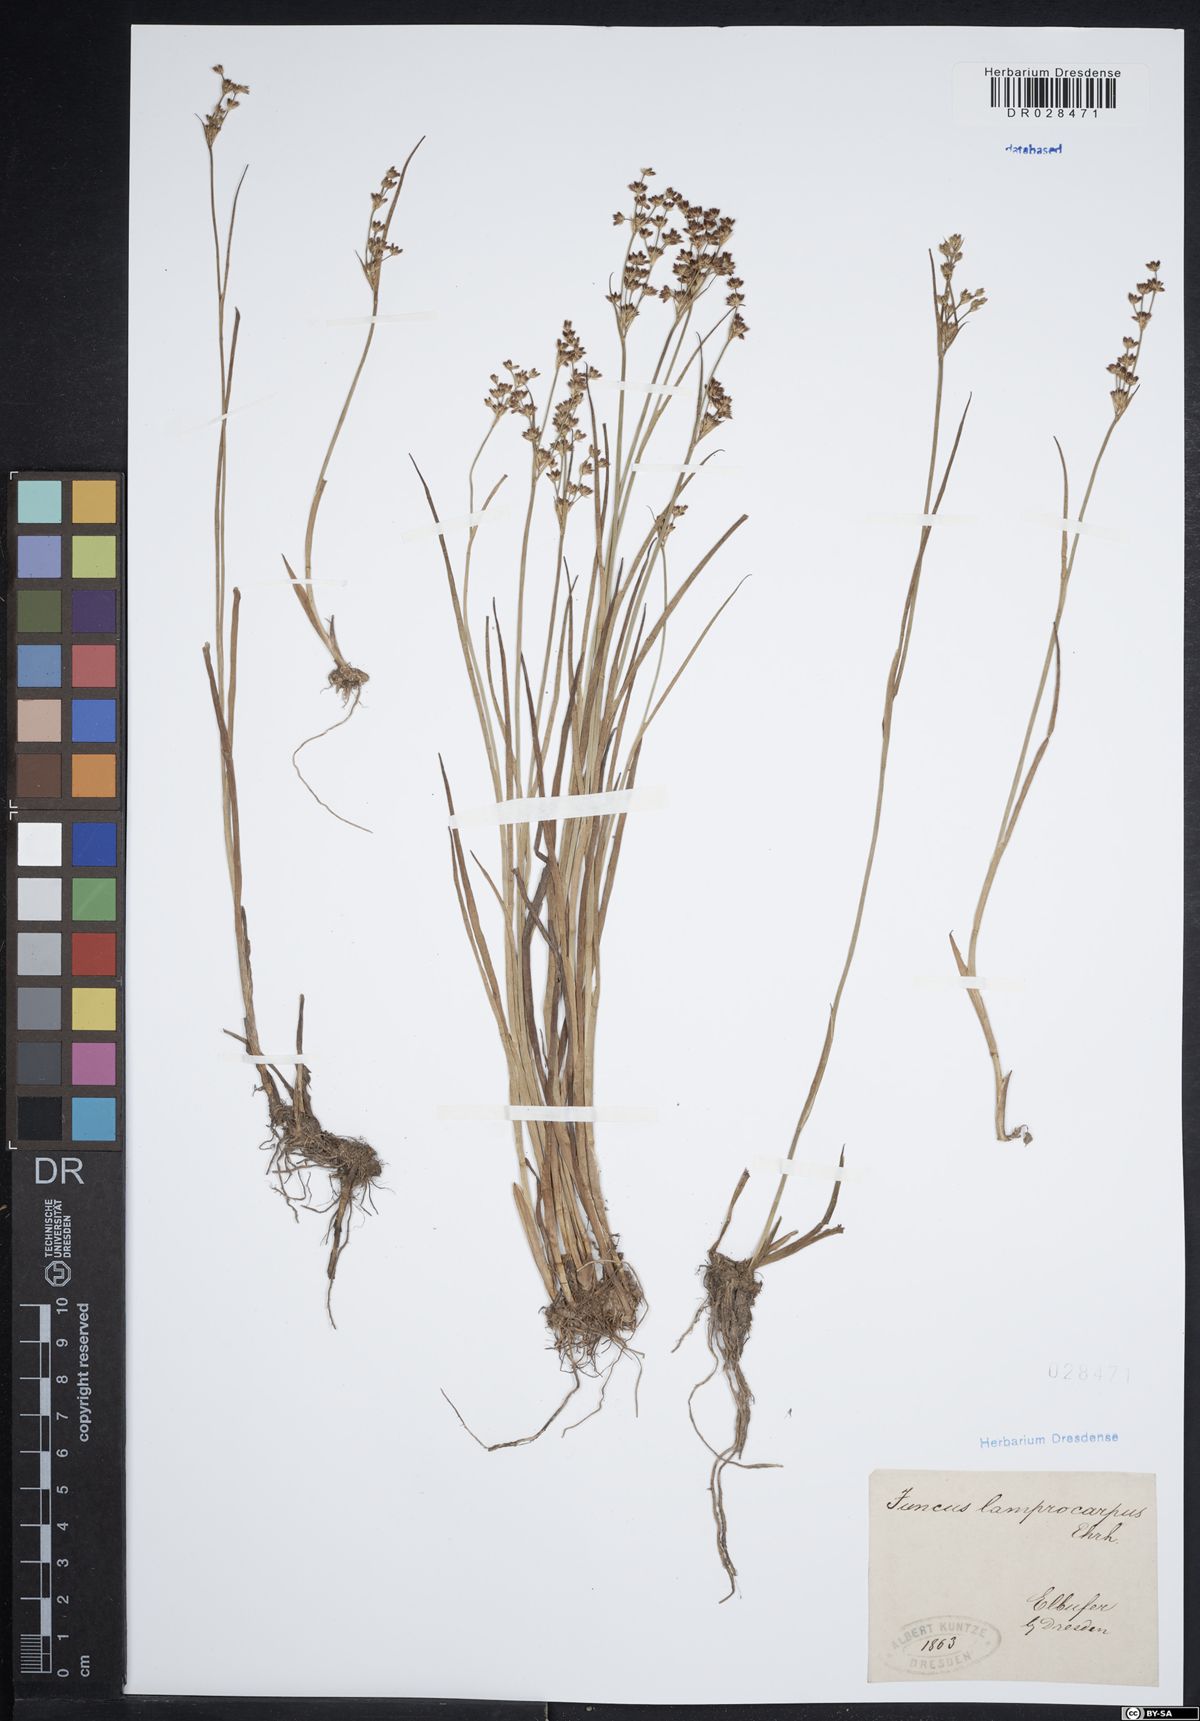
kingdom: Plantae
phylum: Tracheophyta
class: Liliopsida
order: Poales
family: Juncaceae
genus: Juncus
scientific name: Juncus articulatus
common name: Jointed rush
